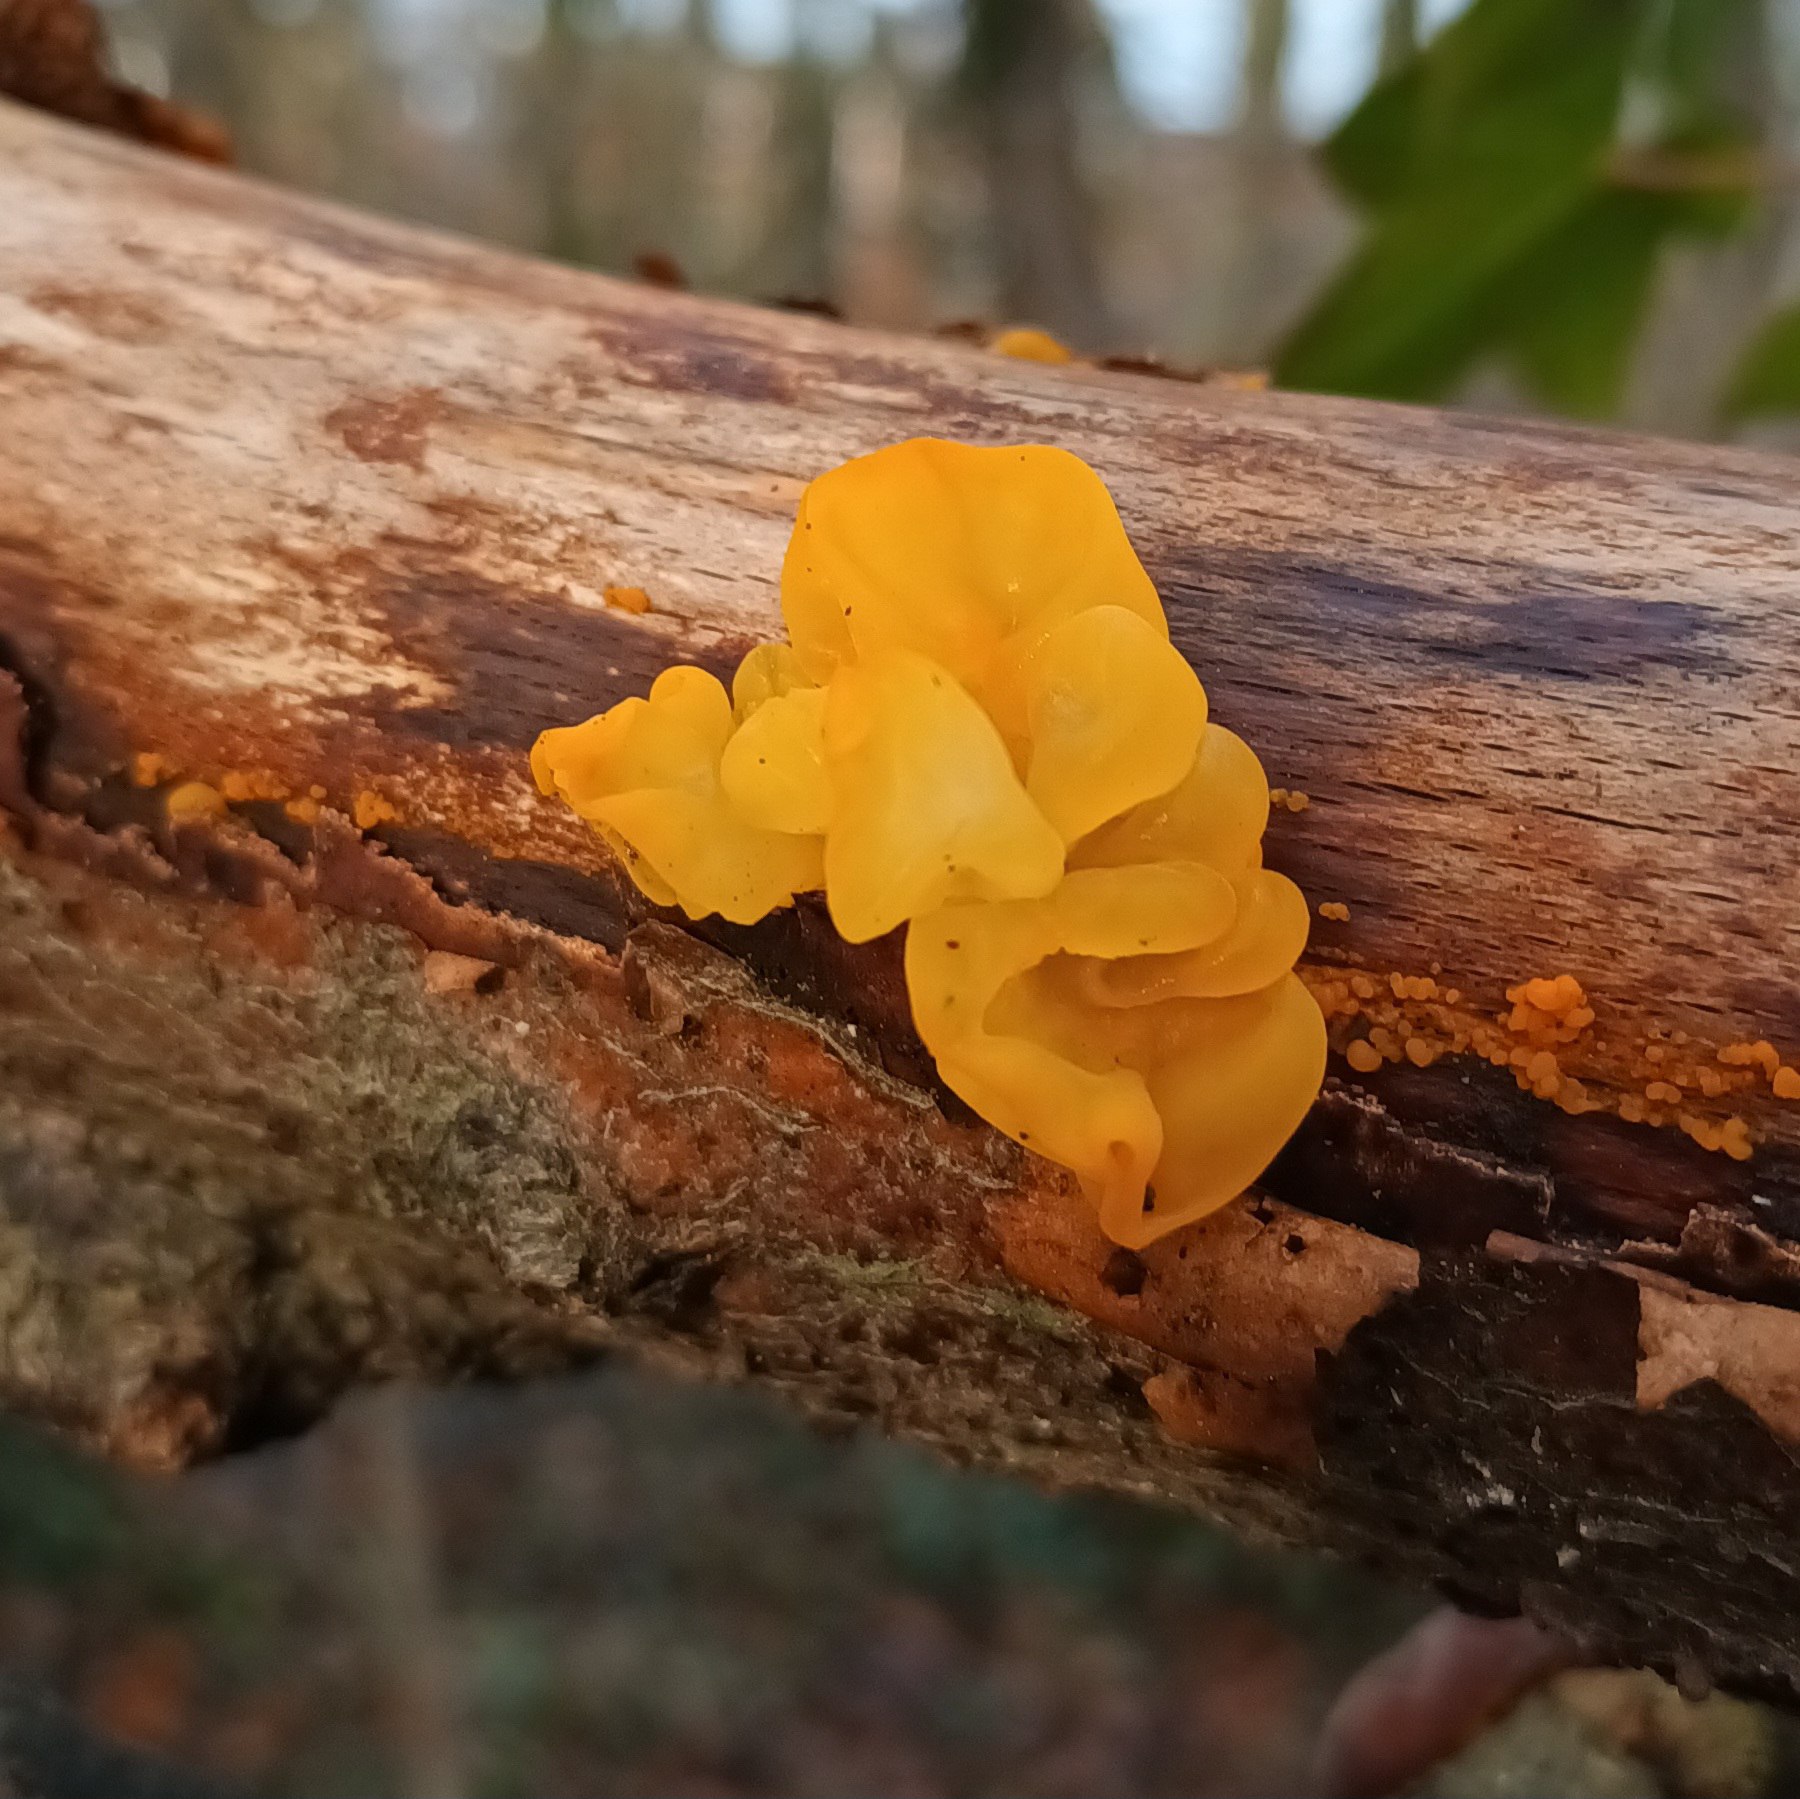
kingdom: Fungi
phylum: Basidiomycota
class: Tremellomycetes
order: Tremellales
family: Tremellaceae
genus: Tremella
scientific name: Tremella mesenterica
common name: Gul bævresvamp
